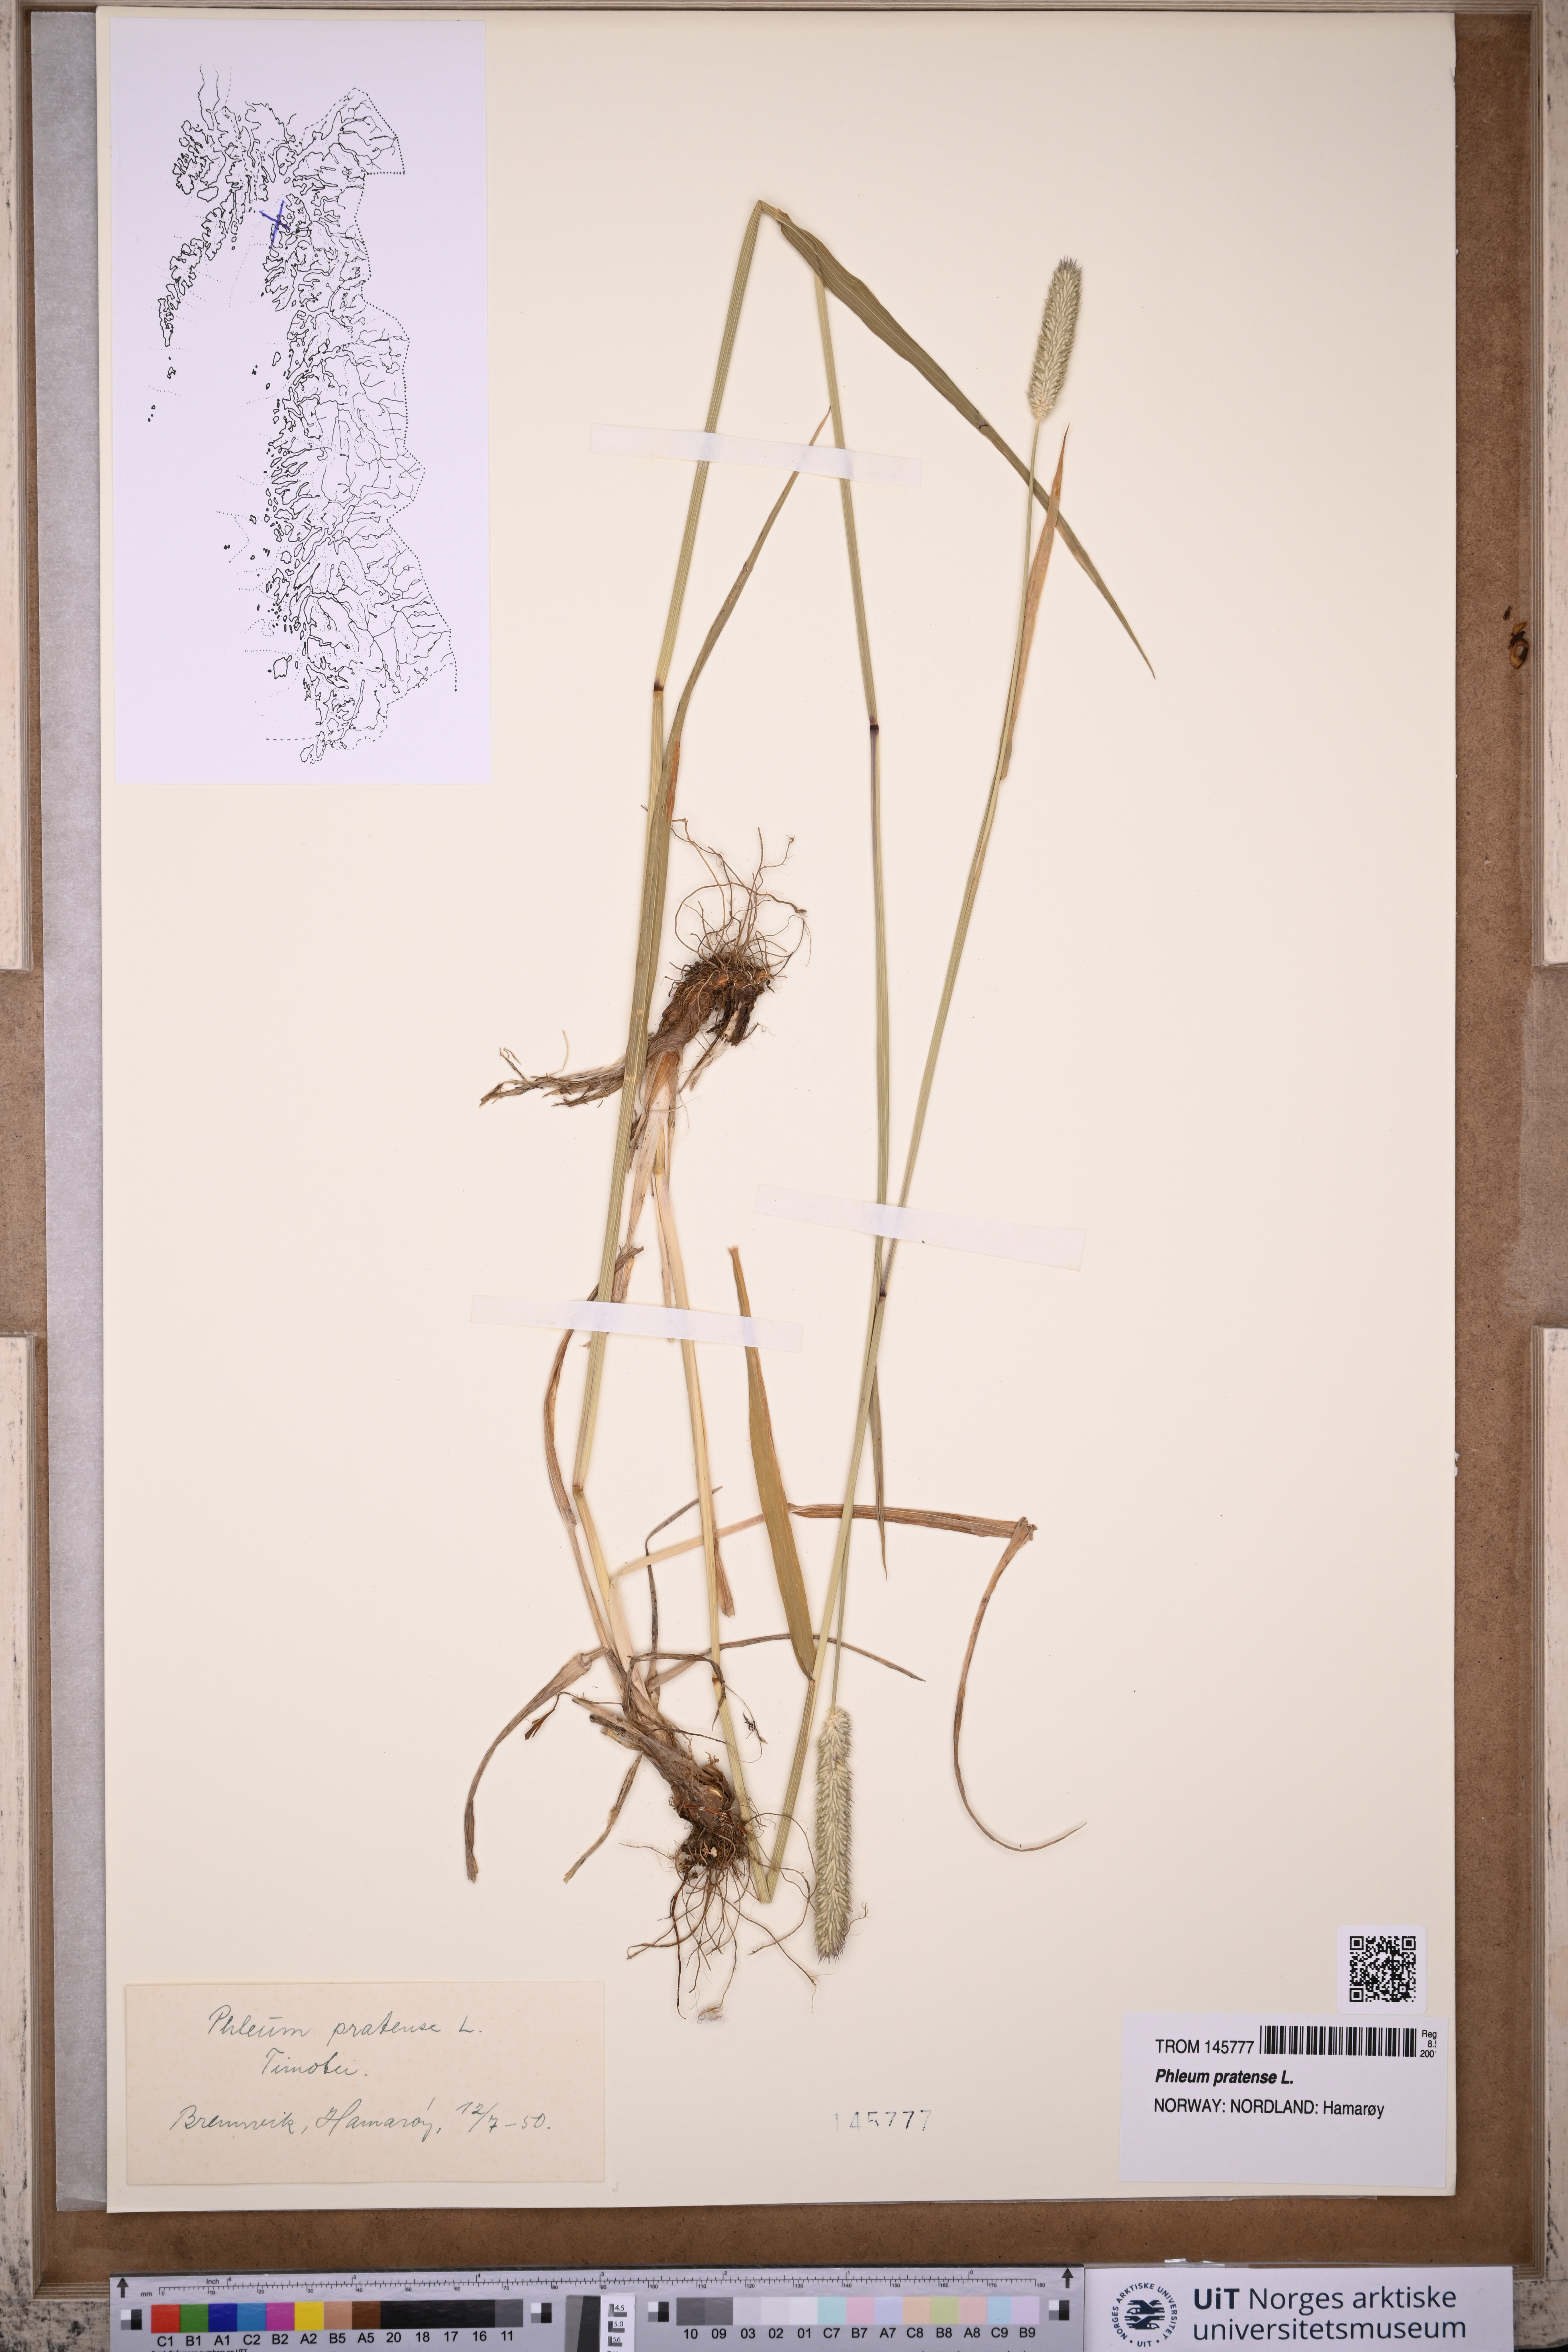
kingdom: Plantae
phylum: Tracheophyta
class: Liliopsida
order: Poales
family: Poaceae
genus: Phleum
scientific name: Phleum pratense
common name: Timothy grass
